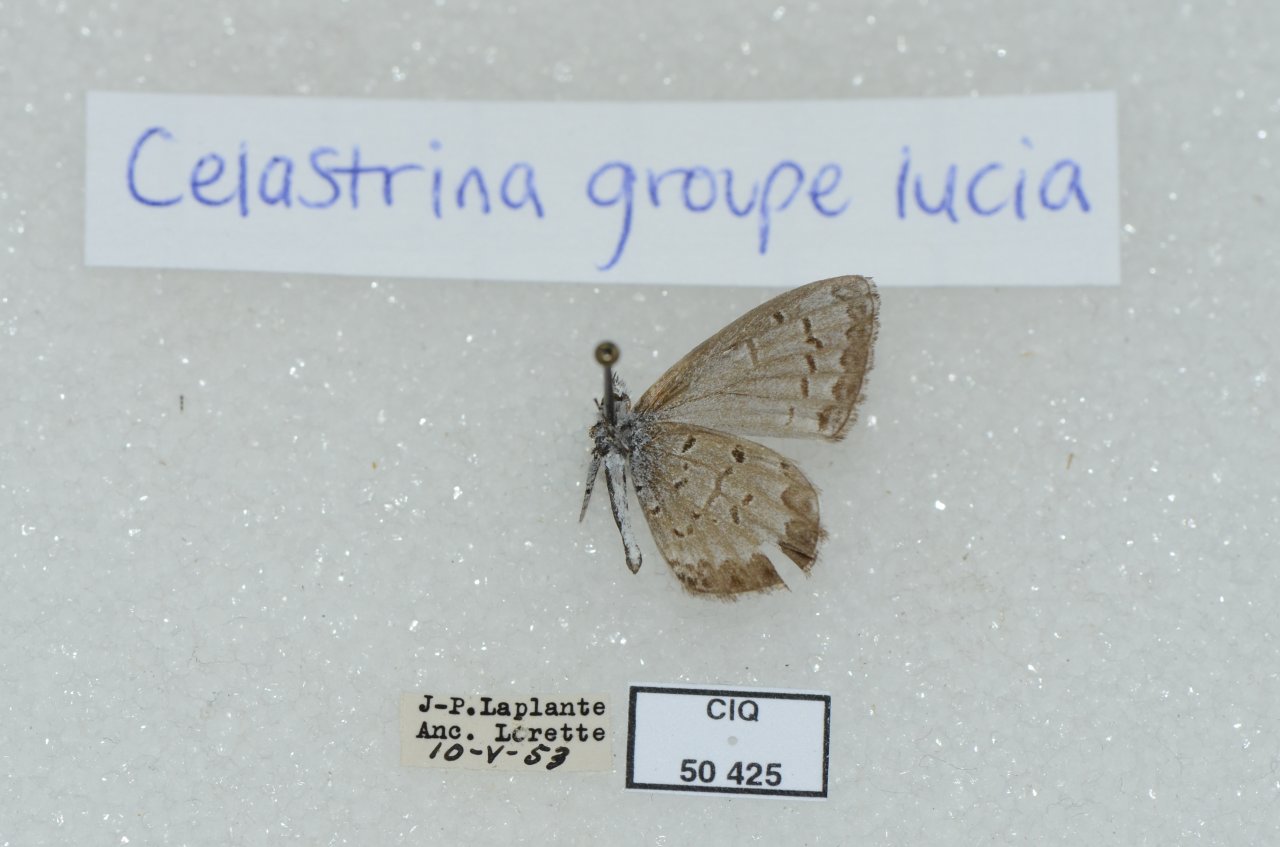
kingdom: Animalia
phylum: Arthropoda
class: Insecta
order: Lepidoptera
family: Lycaenidae
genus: Celastrina
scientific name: Celastrina lucia
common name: Northern Spring Azure
